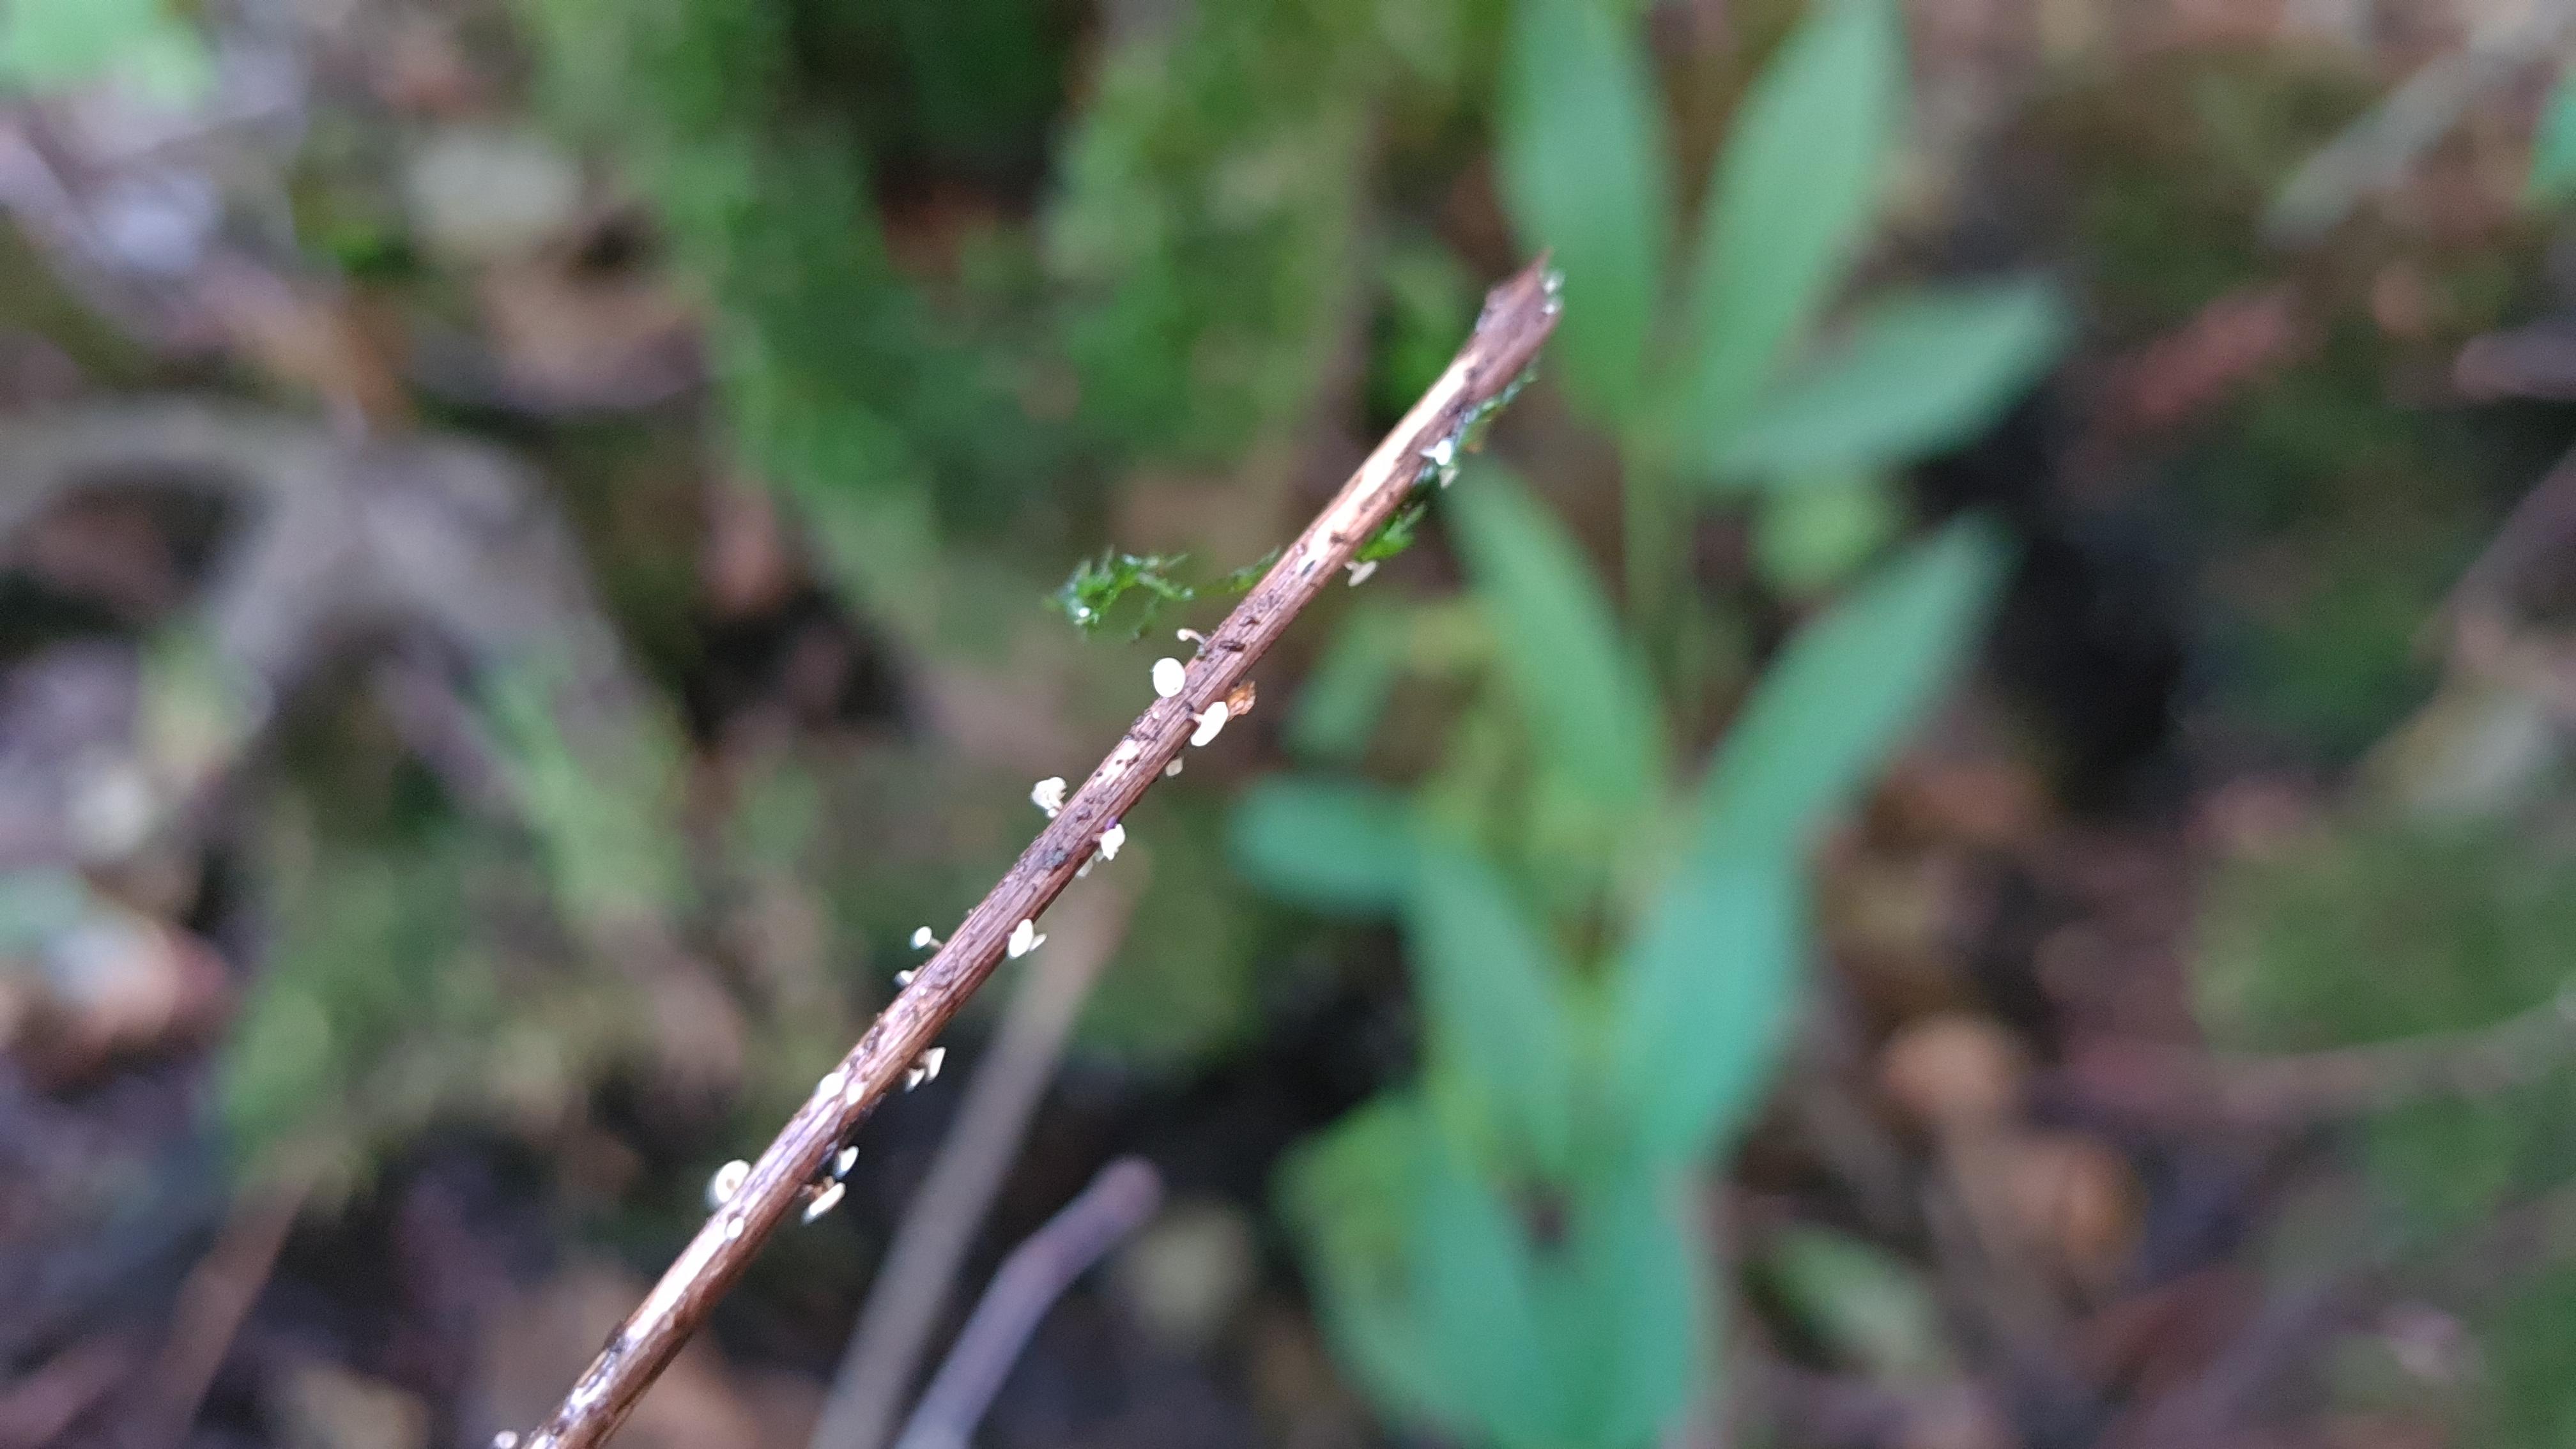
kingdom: Fungi
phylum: Ascomycota
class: Leotiomycetes
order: Helotiales
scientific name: Helotiales
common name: stilkskiveordenen
